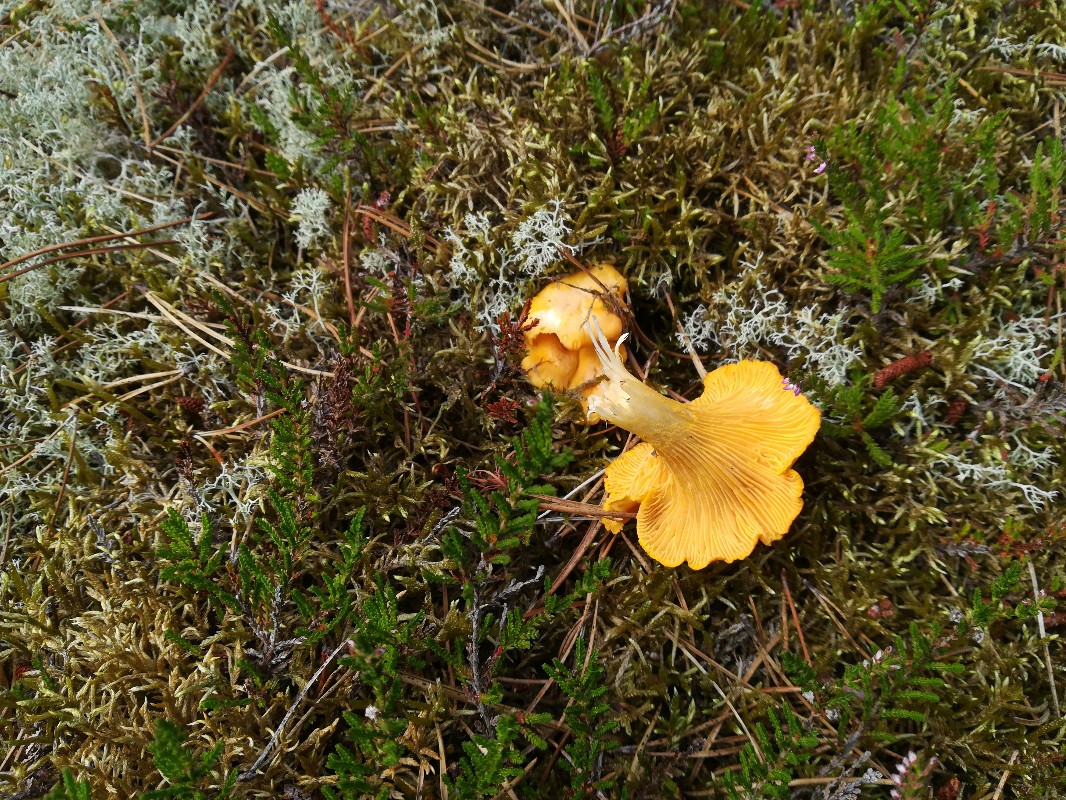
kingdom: Fungi
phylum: Basidiomycota
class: Agaricomycetes
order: Cantharellales
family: Hydnaceae
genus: Cantharellus
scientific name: Cantharellus cibarius
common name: almindelig kantarel
